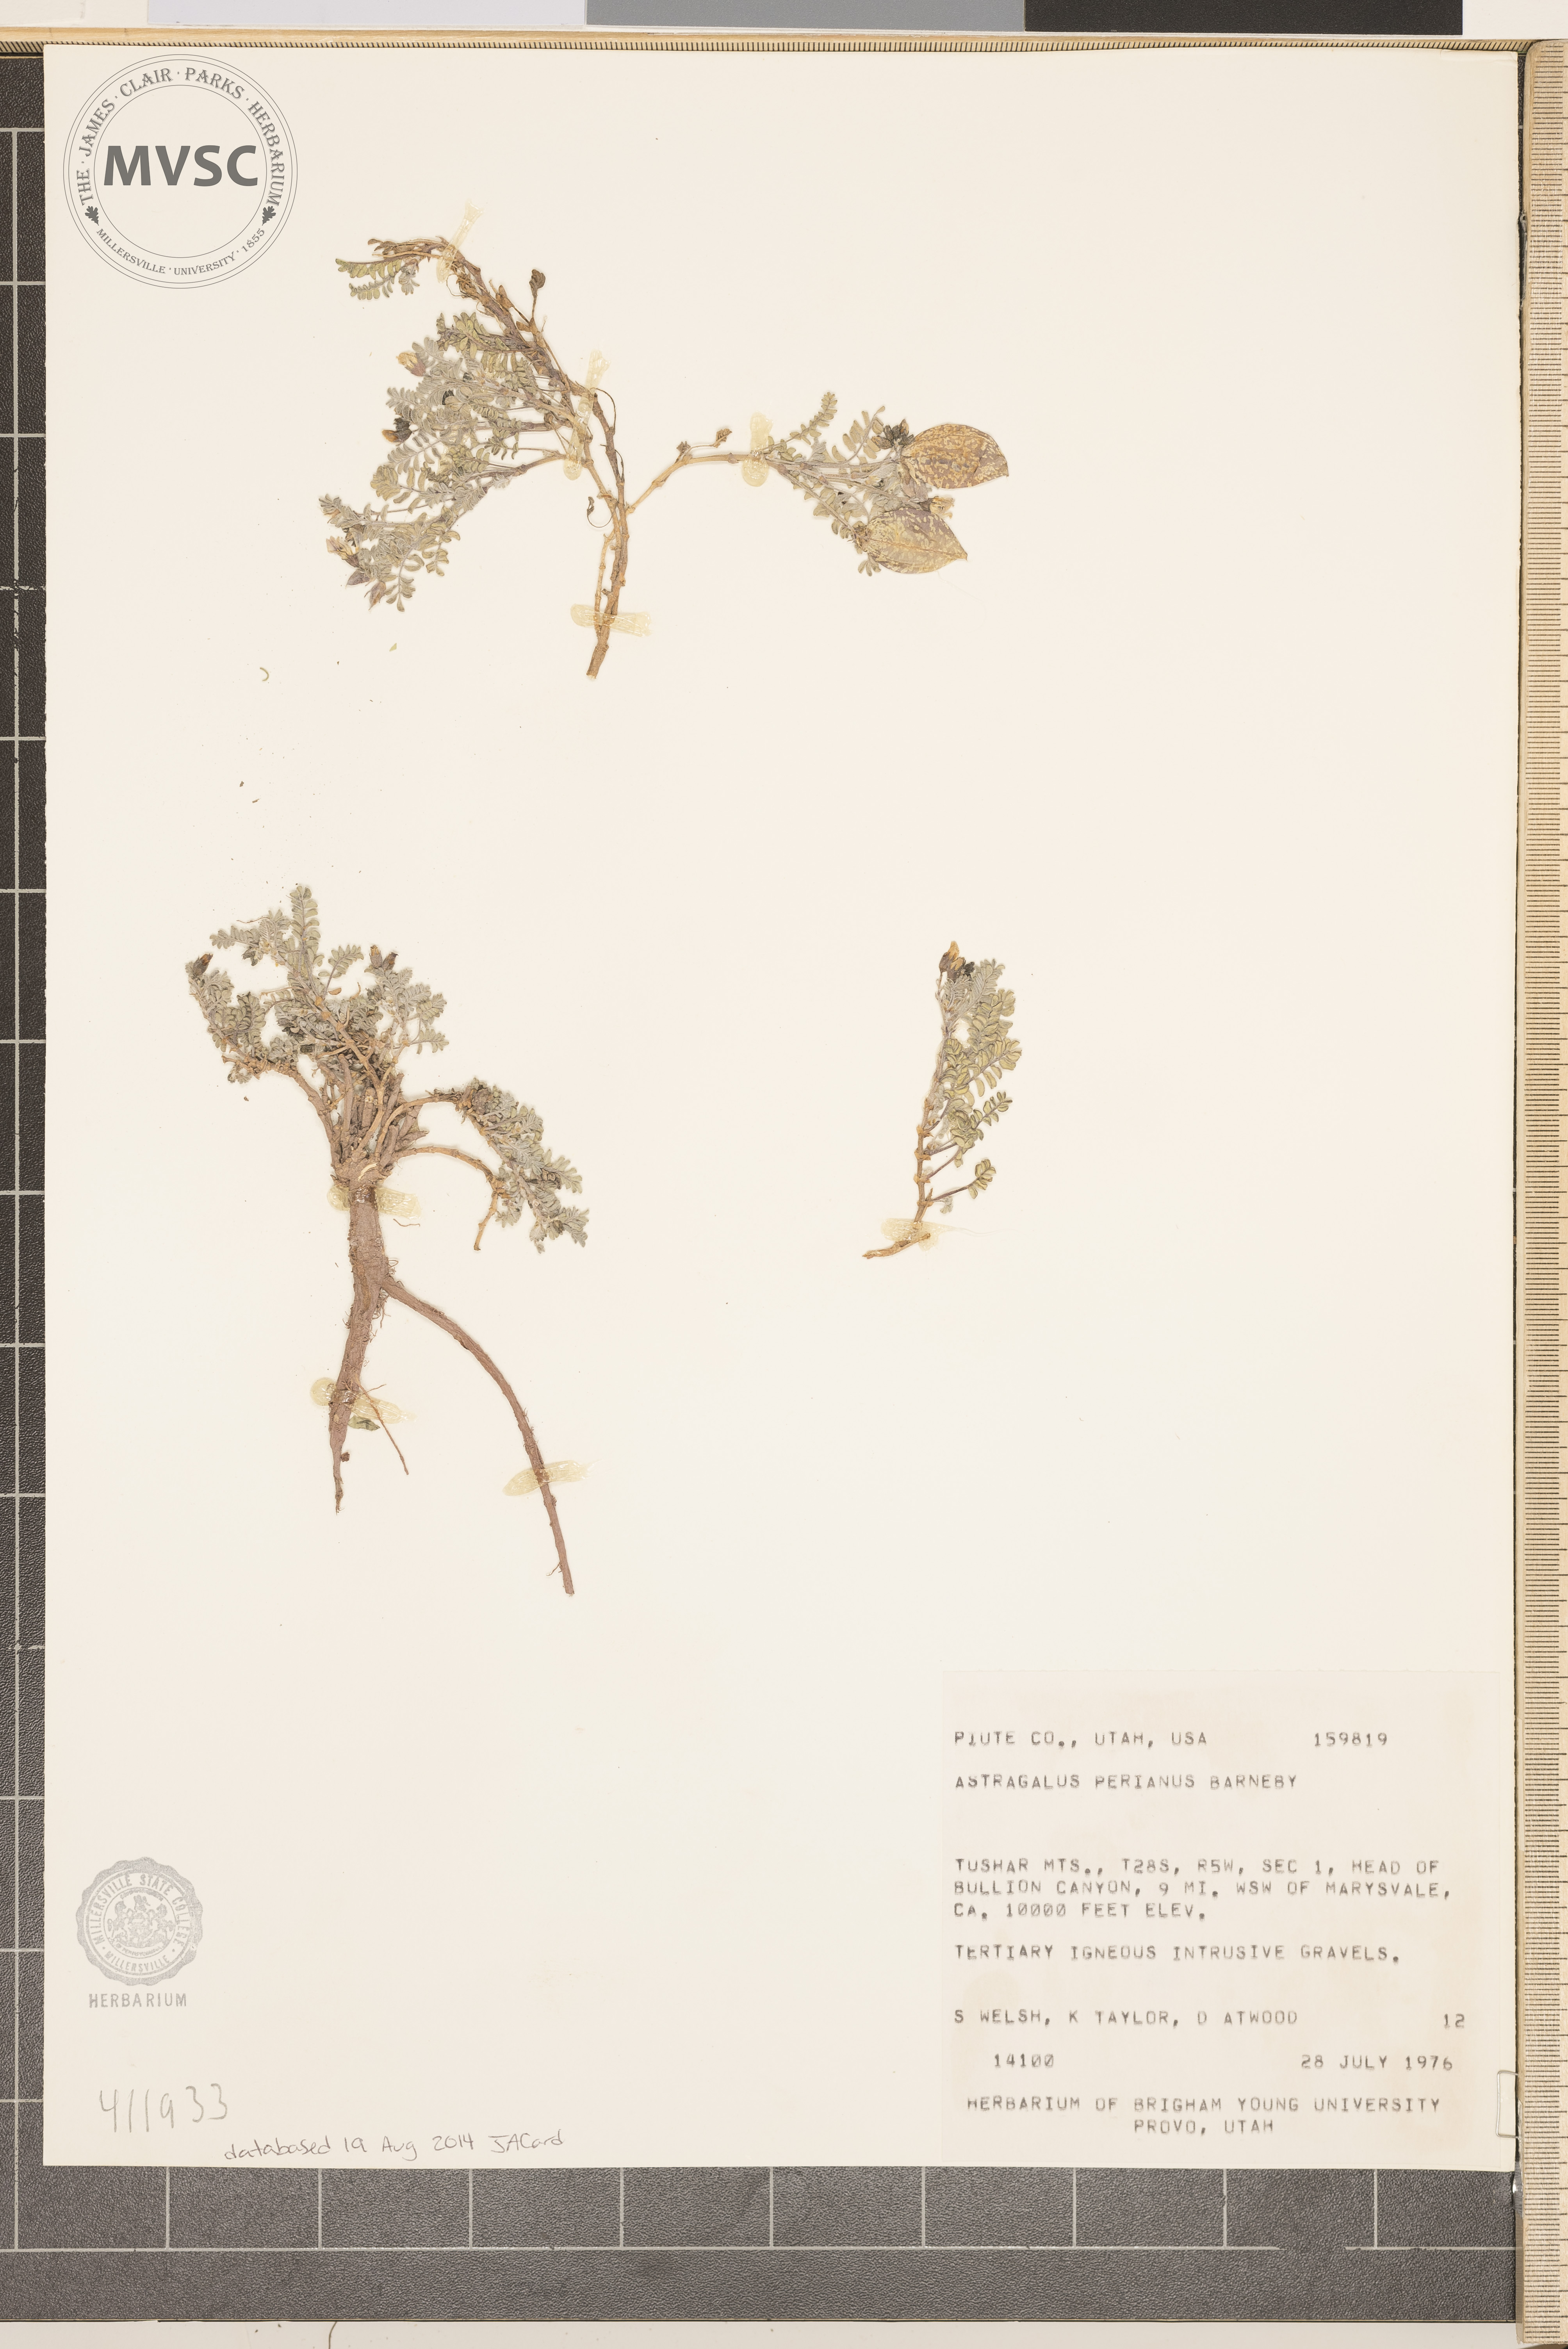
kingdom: Plantae
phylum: Tracheophyta
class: Magnoliopsida
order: Fabales
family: Fabaceae
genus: Astragalus
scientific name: Astragalus perianus
